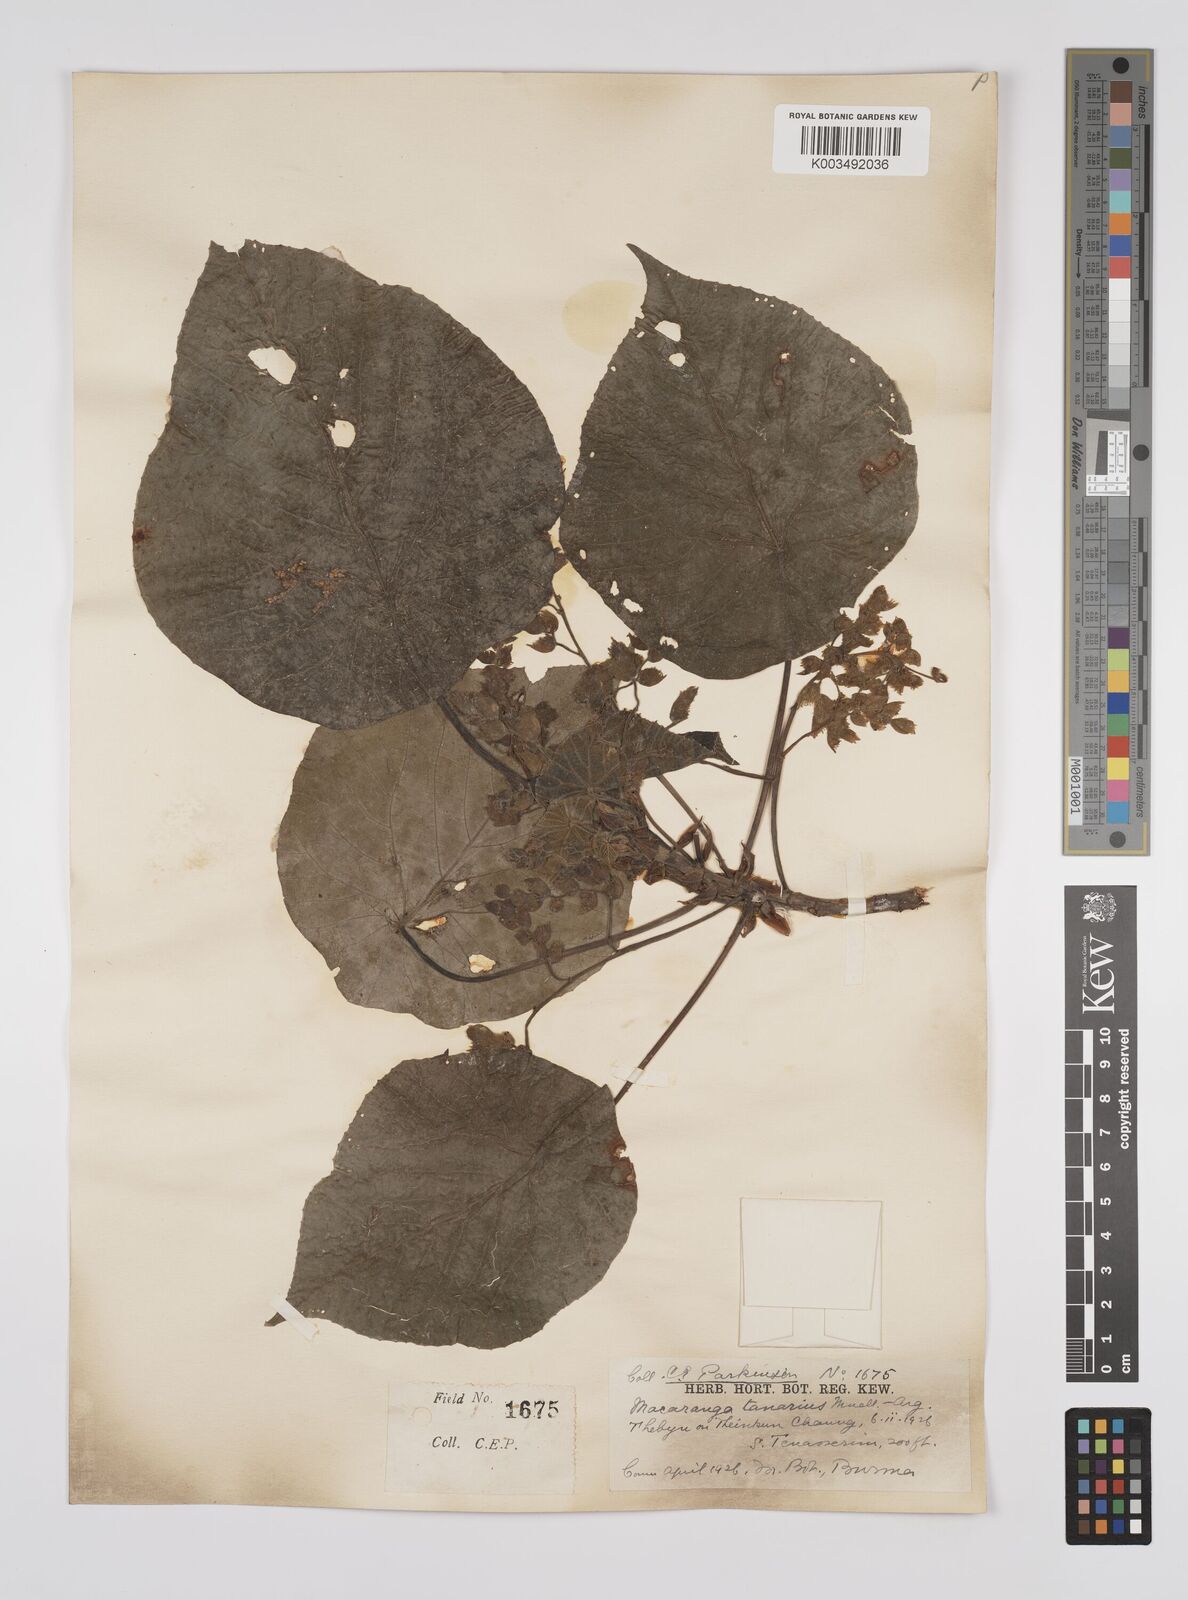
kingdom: Plantae
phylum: Tracheophyta
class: Magnoliopsida
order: Malpighiales
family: Euphorbiaceae
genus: Macaranga
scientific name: Macaranga tanarius
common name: Parasol leaf tree
